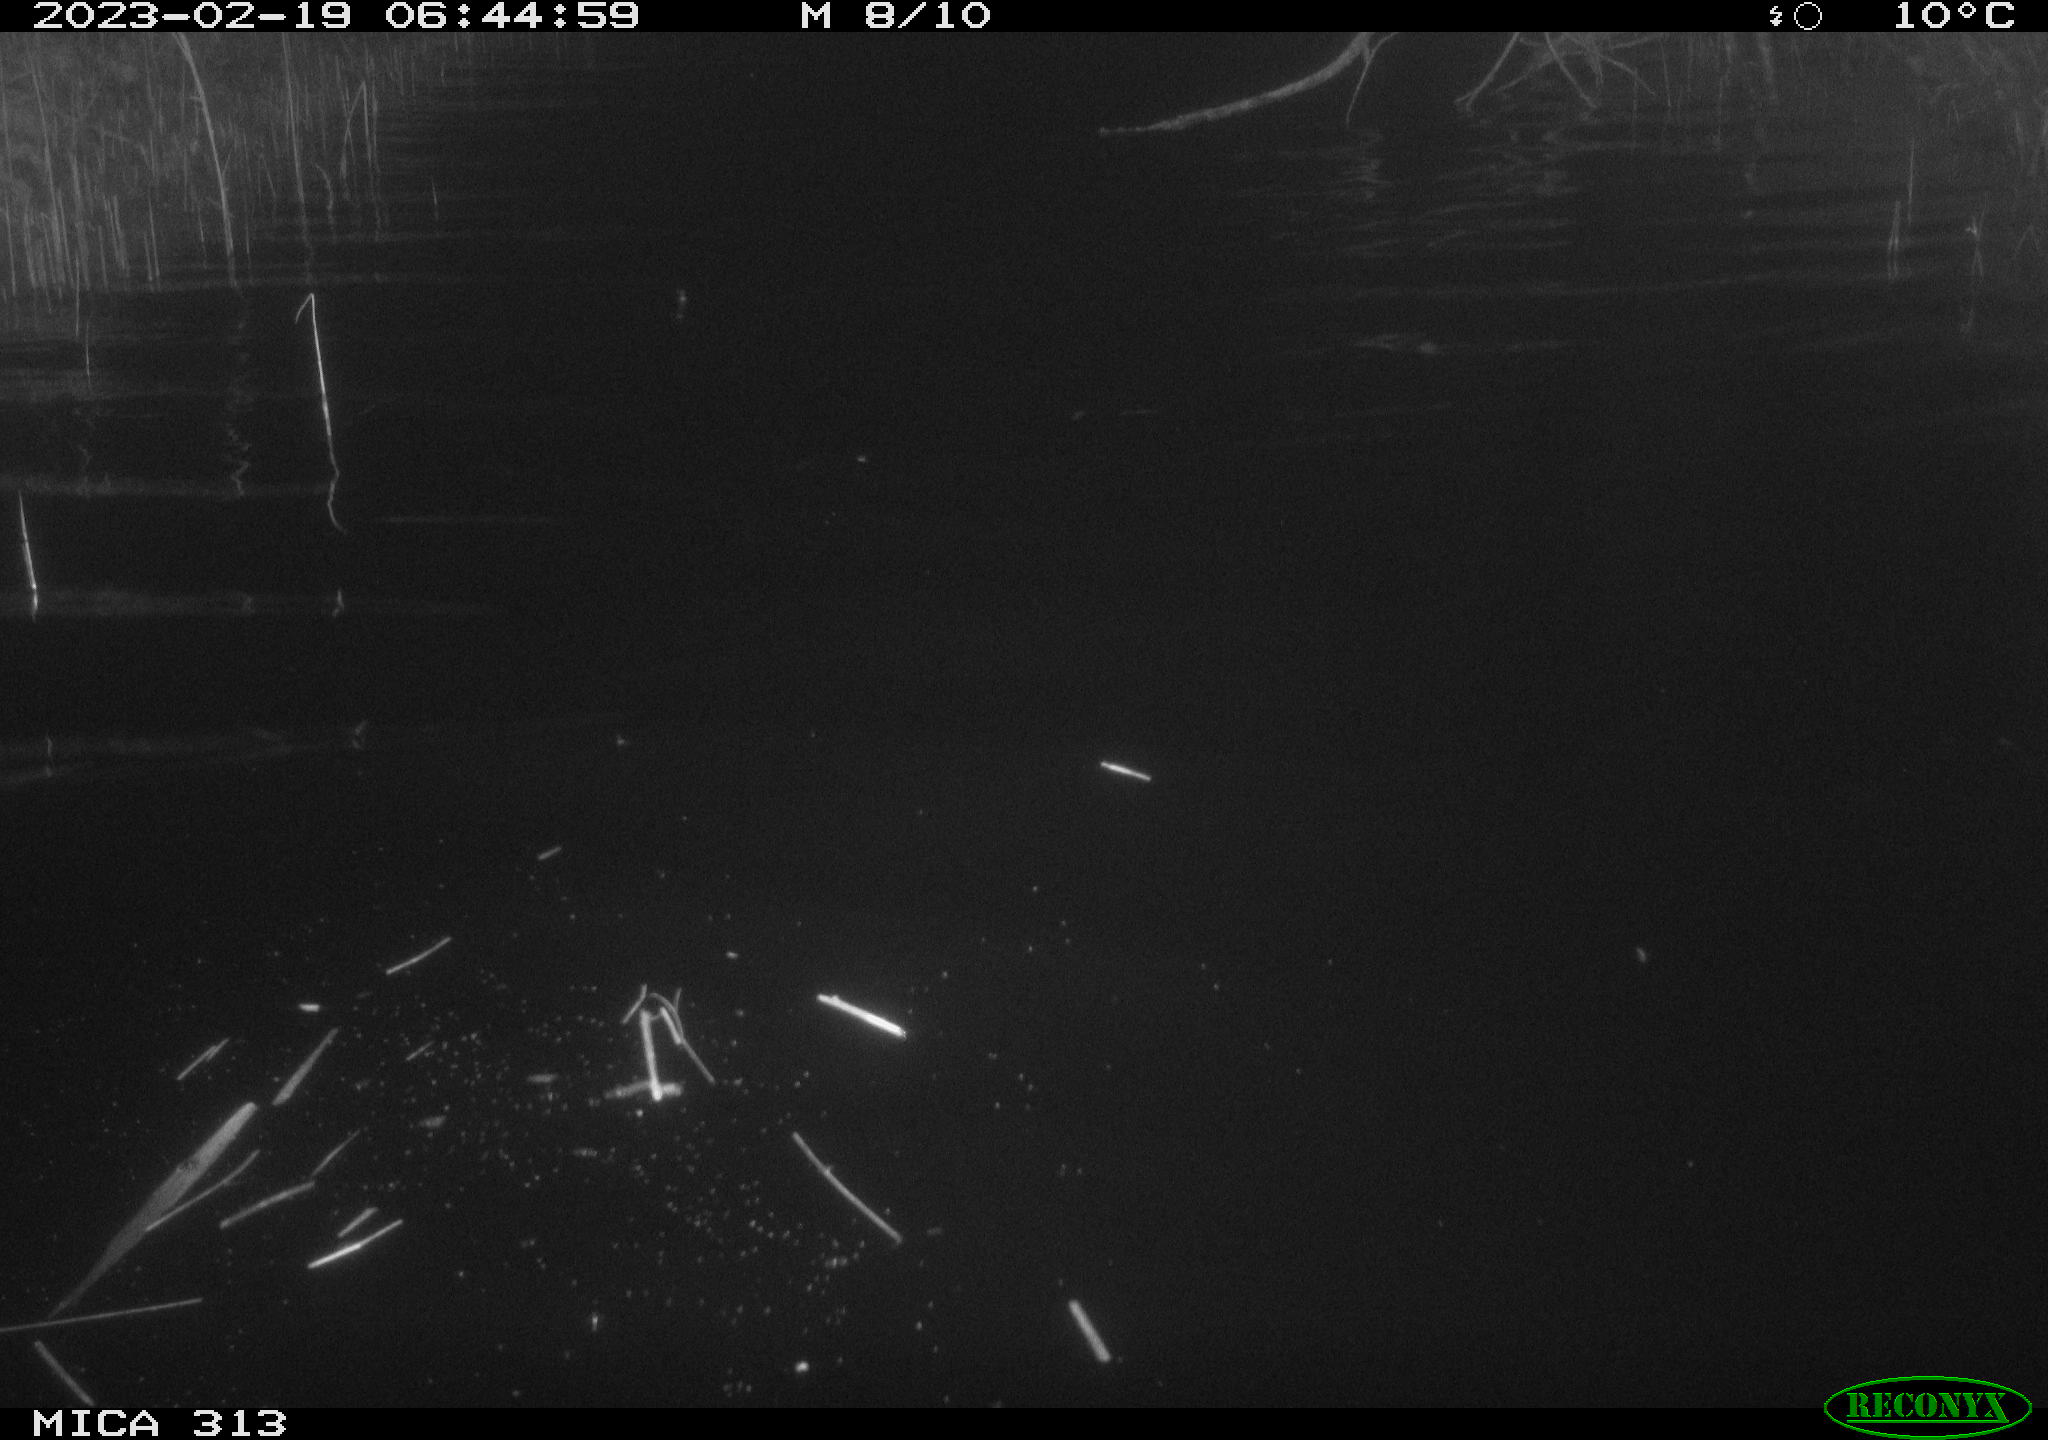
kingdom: Animalia
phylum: Chordata
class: Aves
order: Gruiformes
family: Rallidae
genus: Gallinula
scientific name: Gallinula chloropus
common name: Common moorhen
